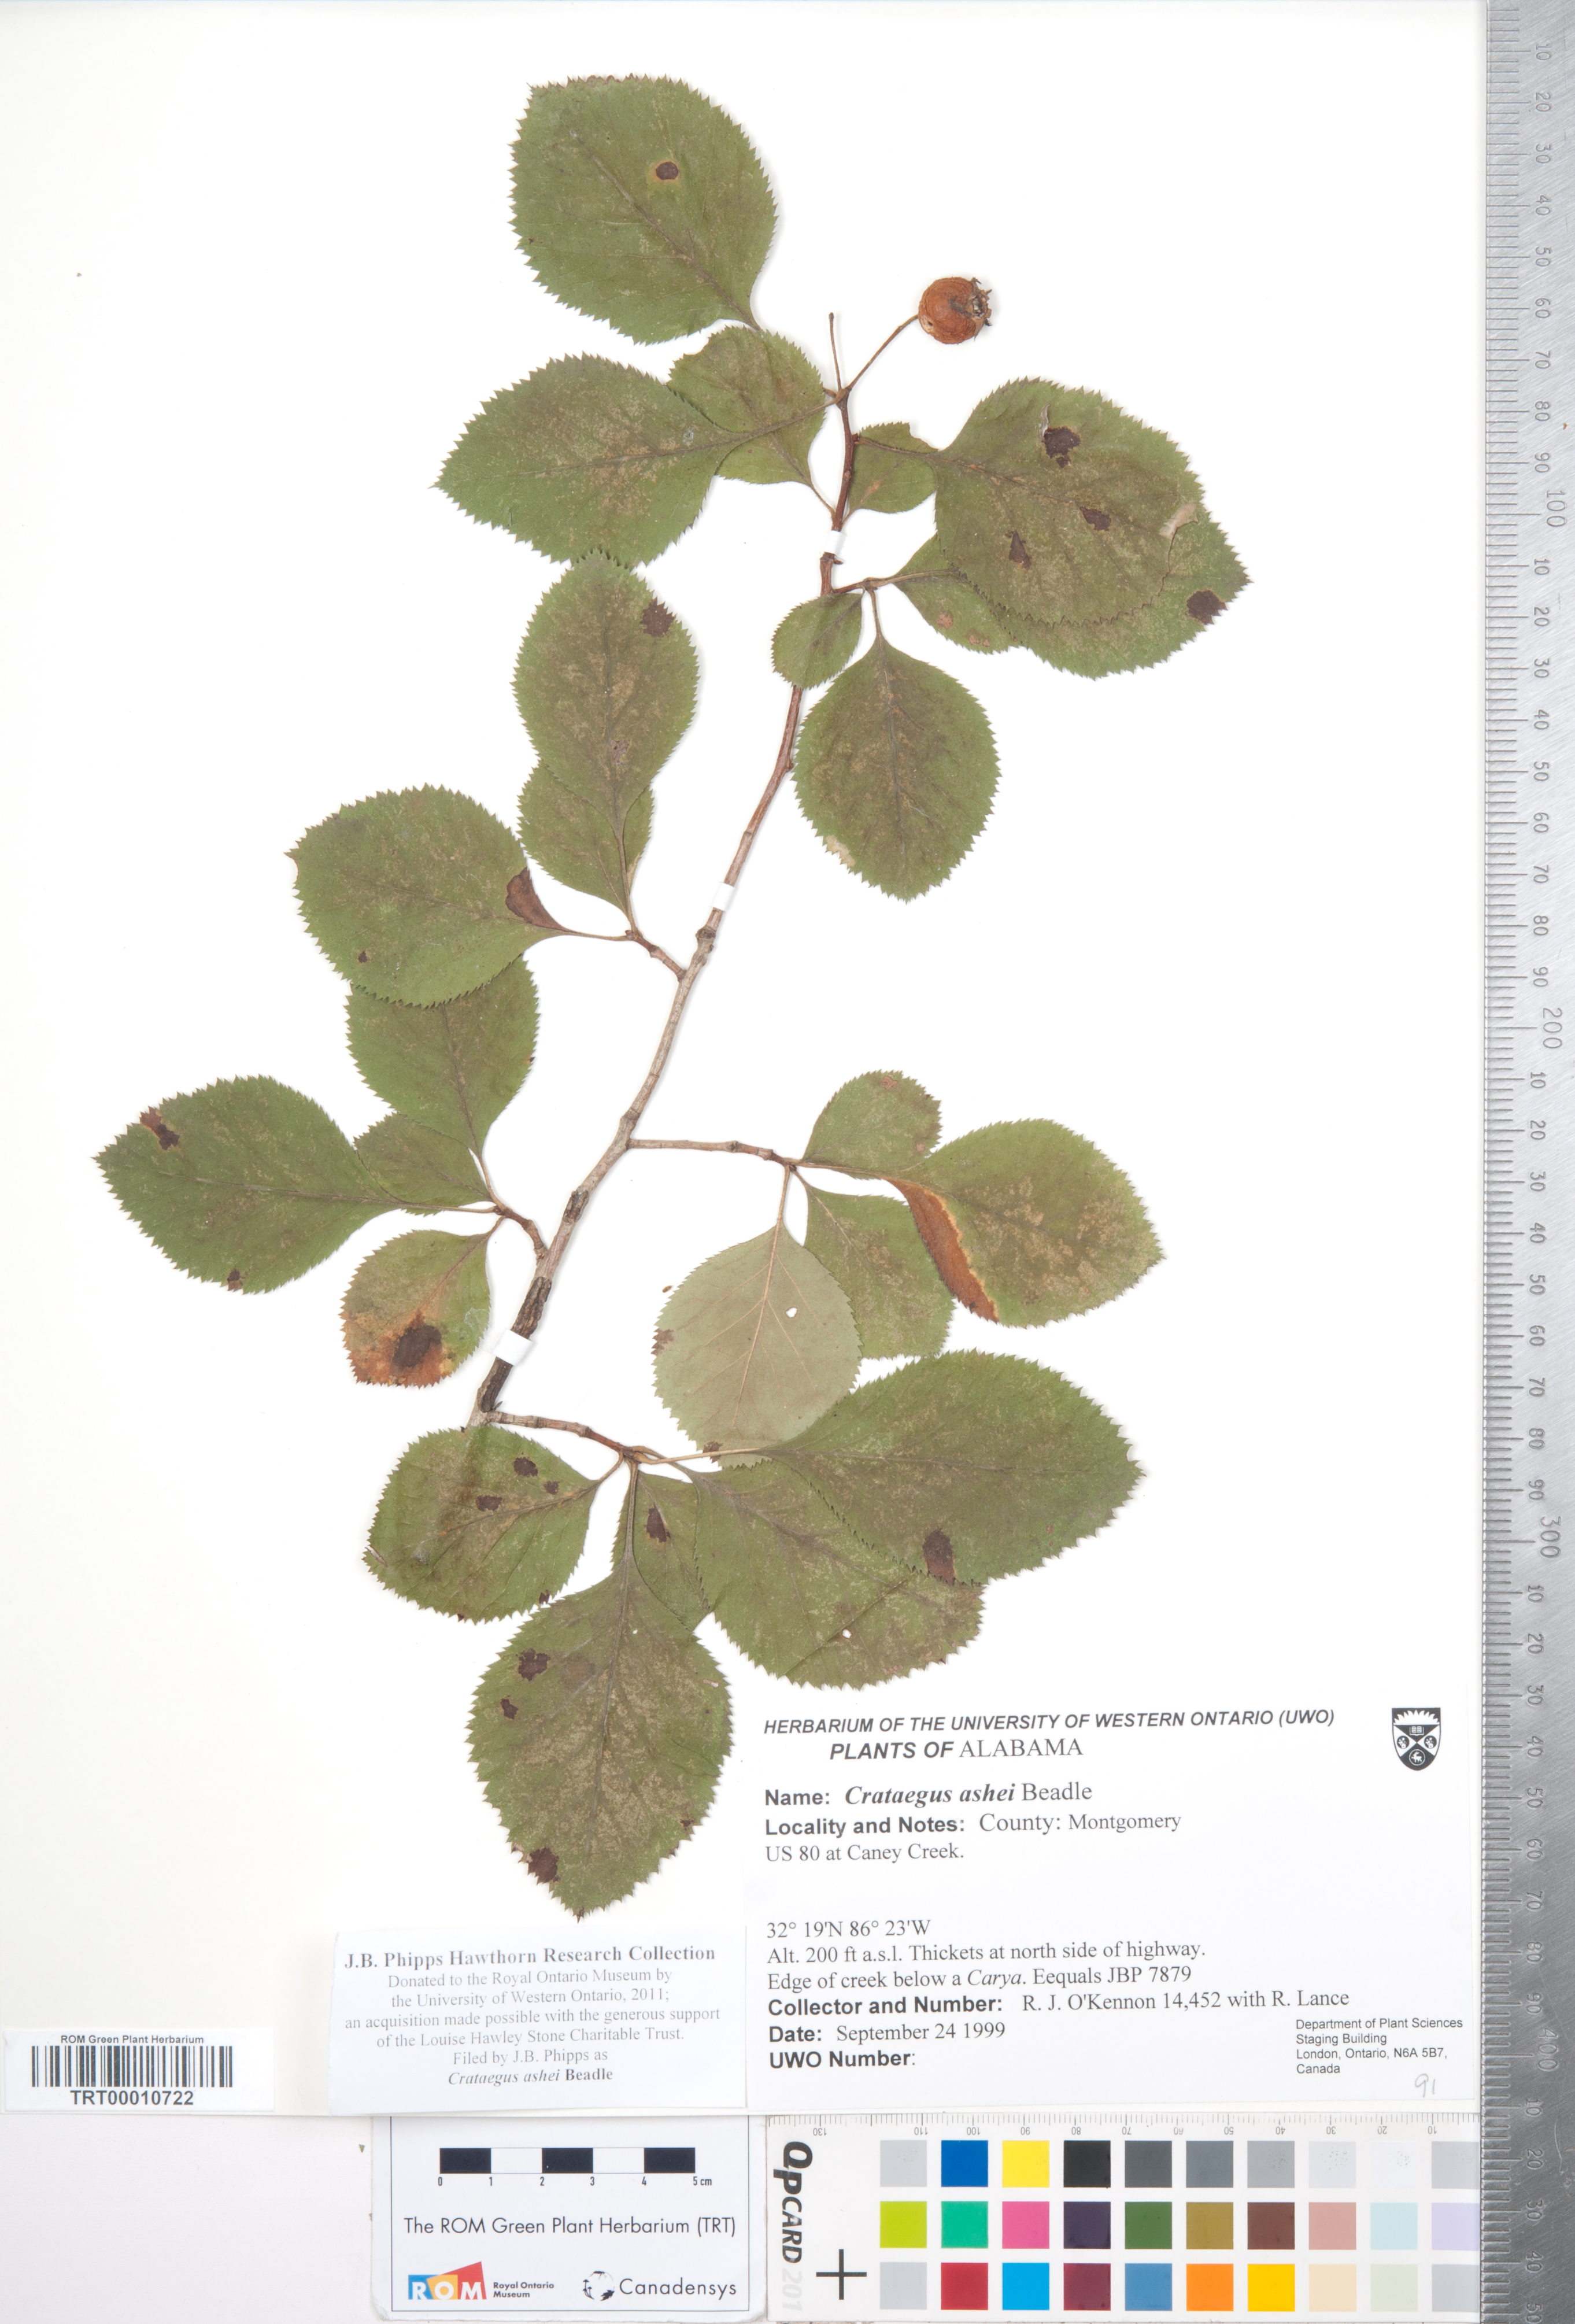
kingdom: Plantae
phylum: Tracheophyta
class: Magnoliopsida
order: Rosales
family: Rosaceae
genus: Crataegus
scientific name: Crataegus ashei
